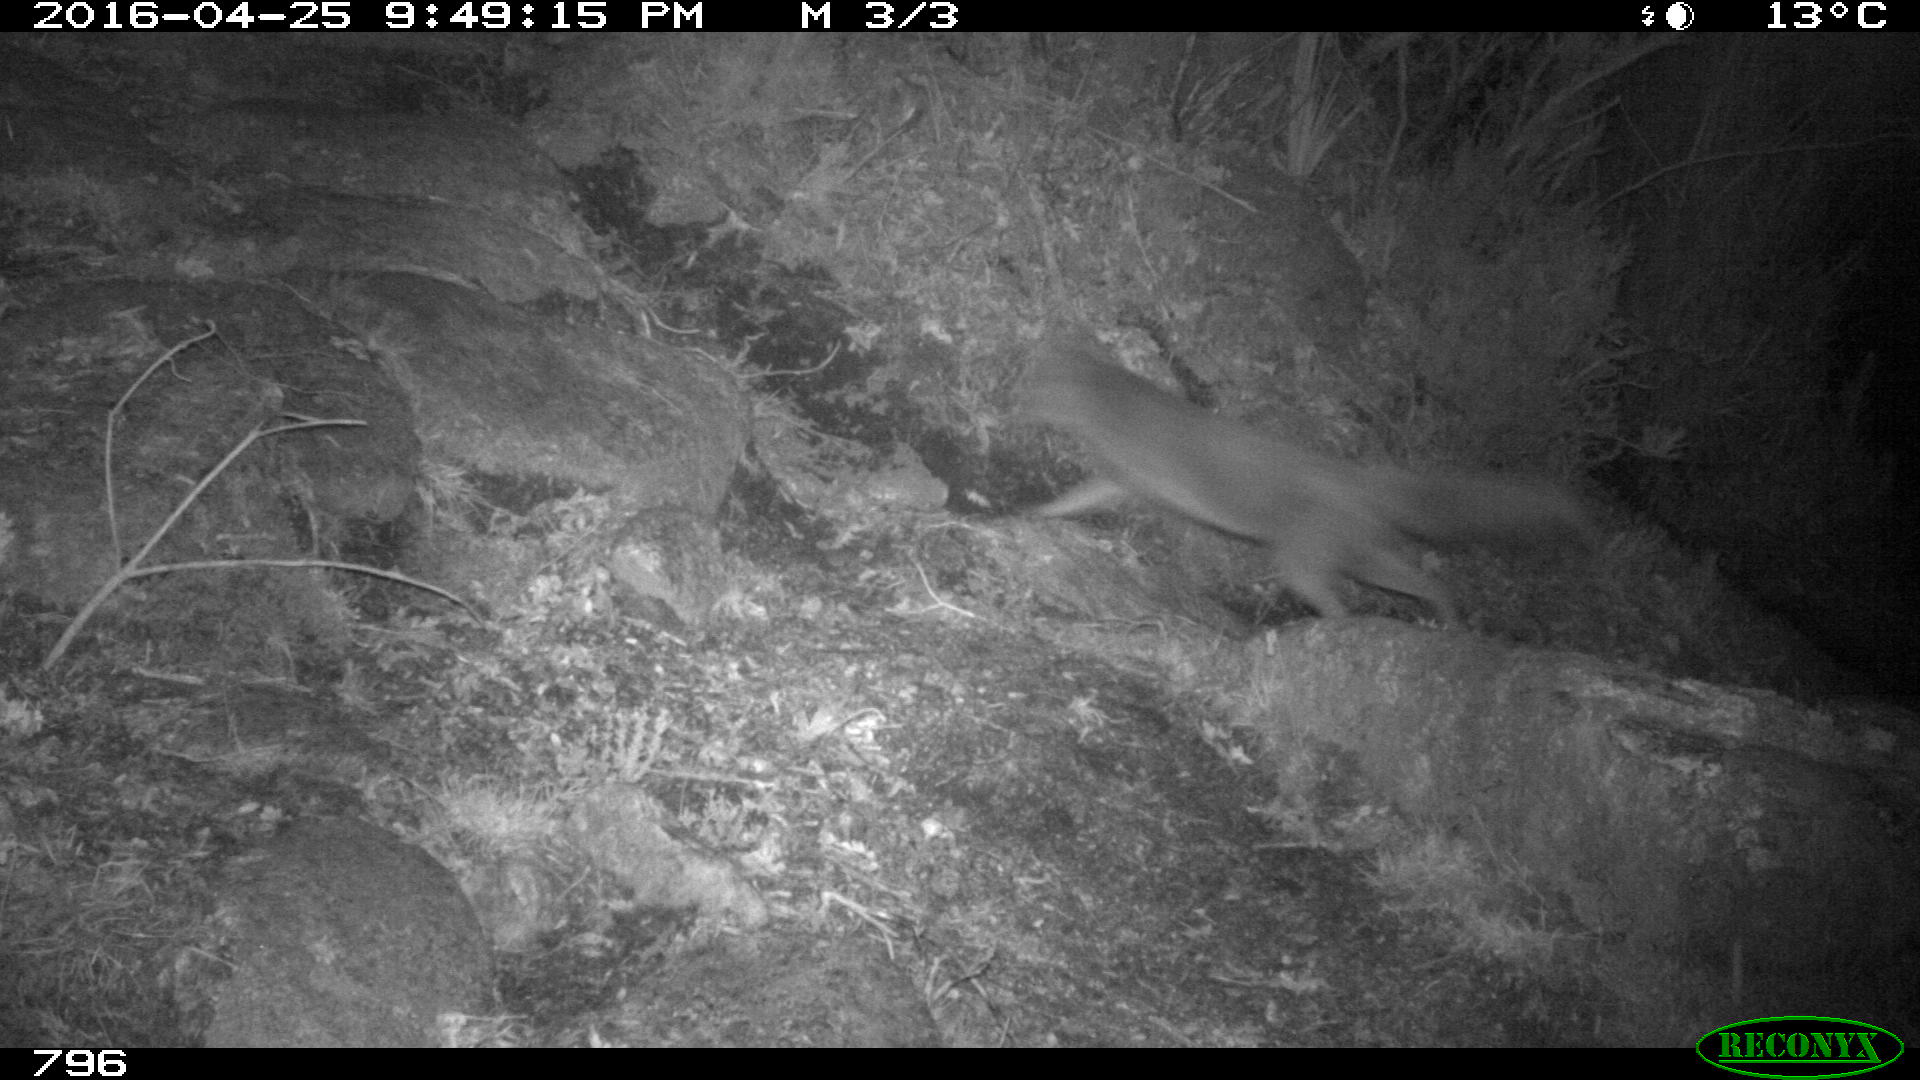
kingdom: Animalia
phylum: Chordata
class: Mammalia
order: Carnivora
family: Canidae
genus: Vulpes
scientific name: Vulpes vulpes
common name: Red fox
